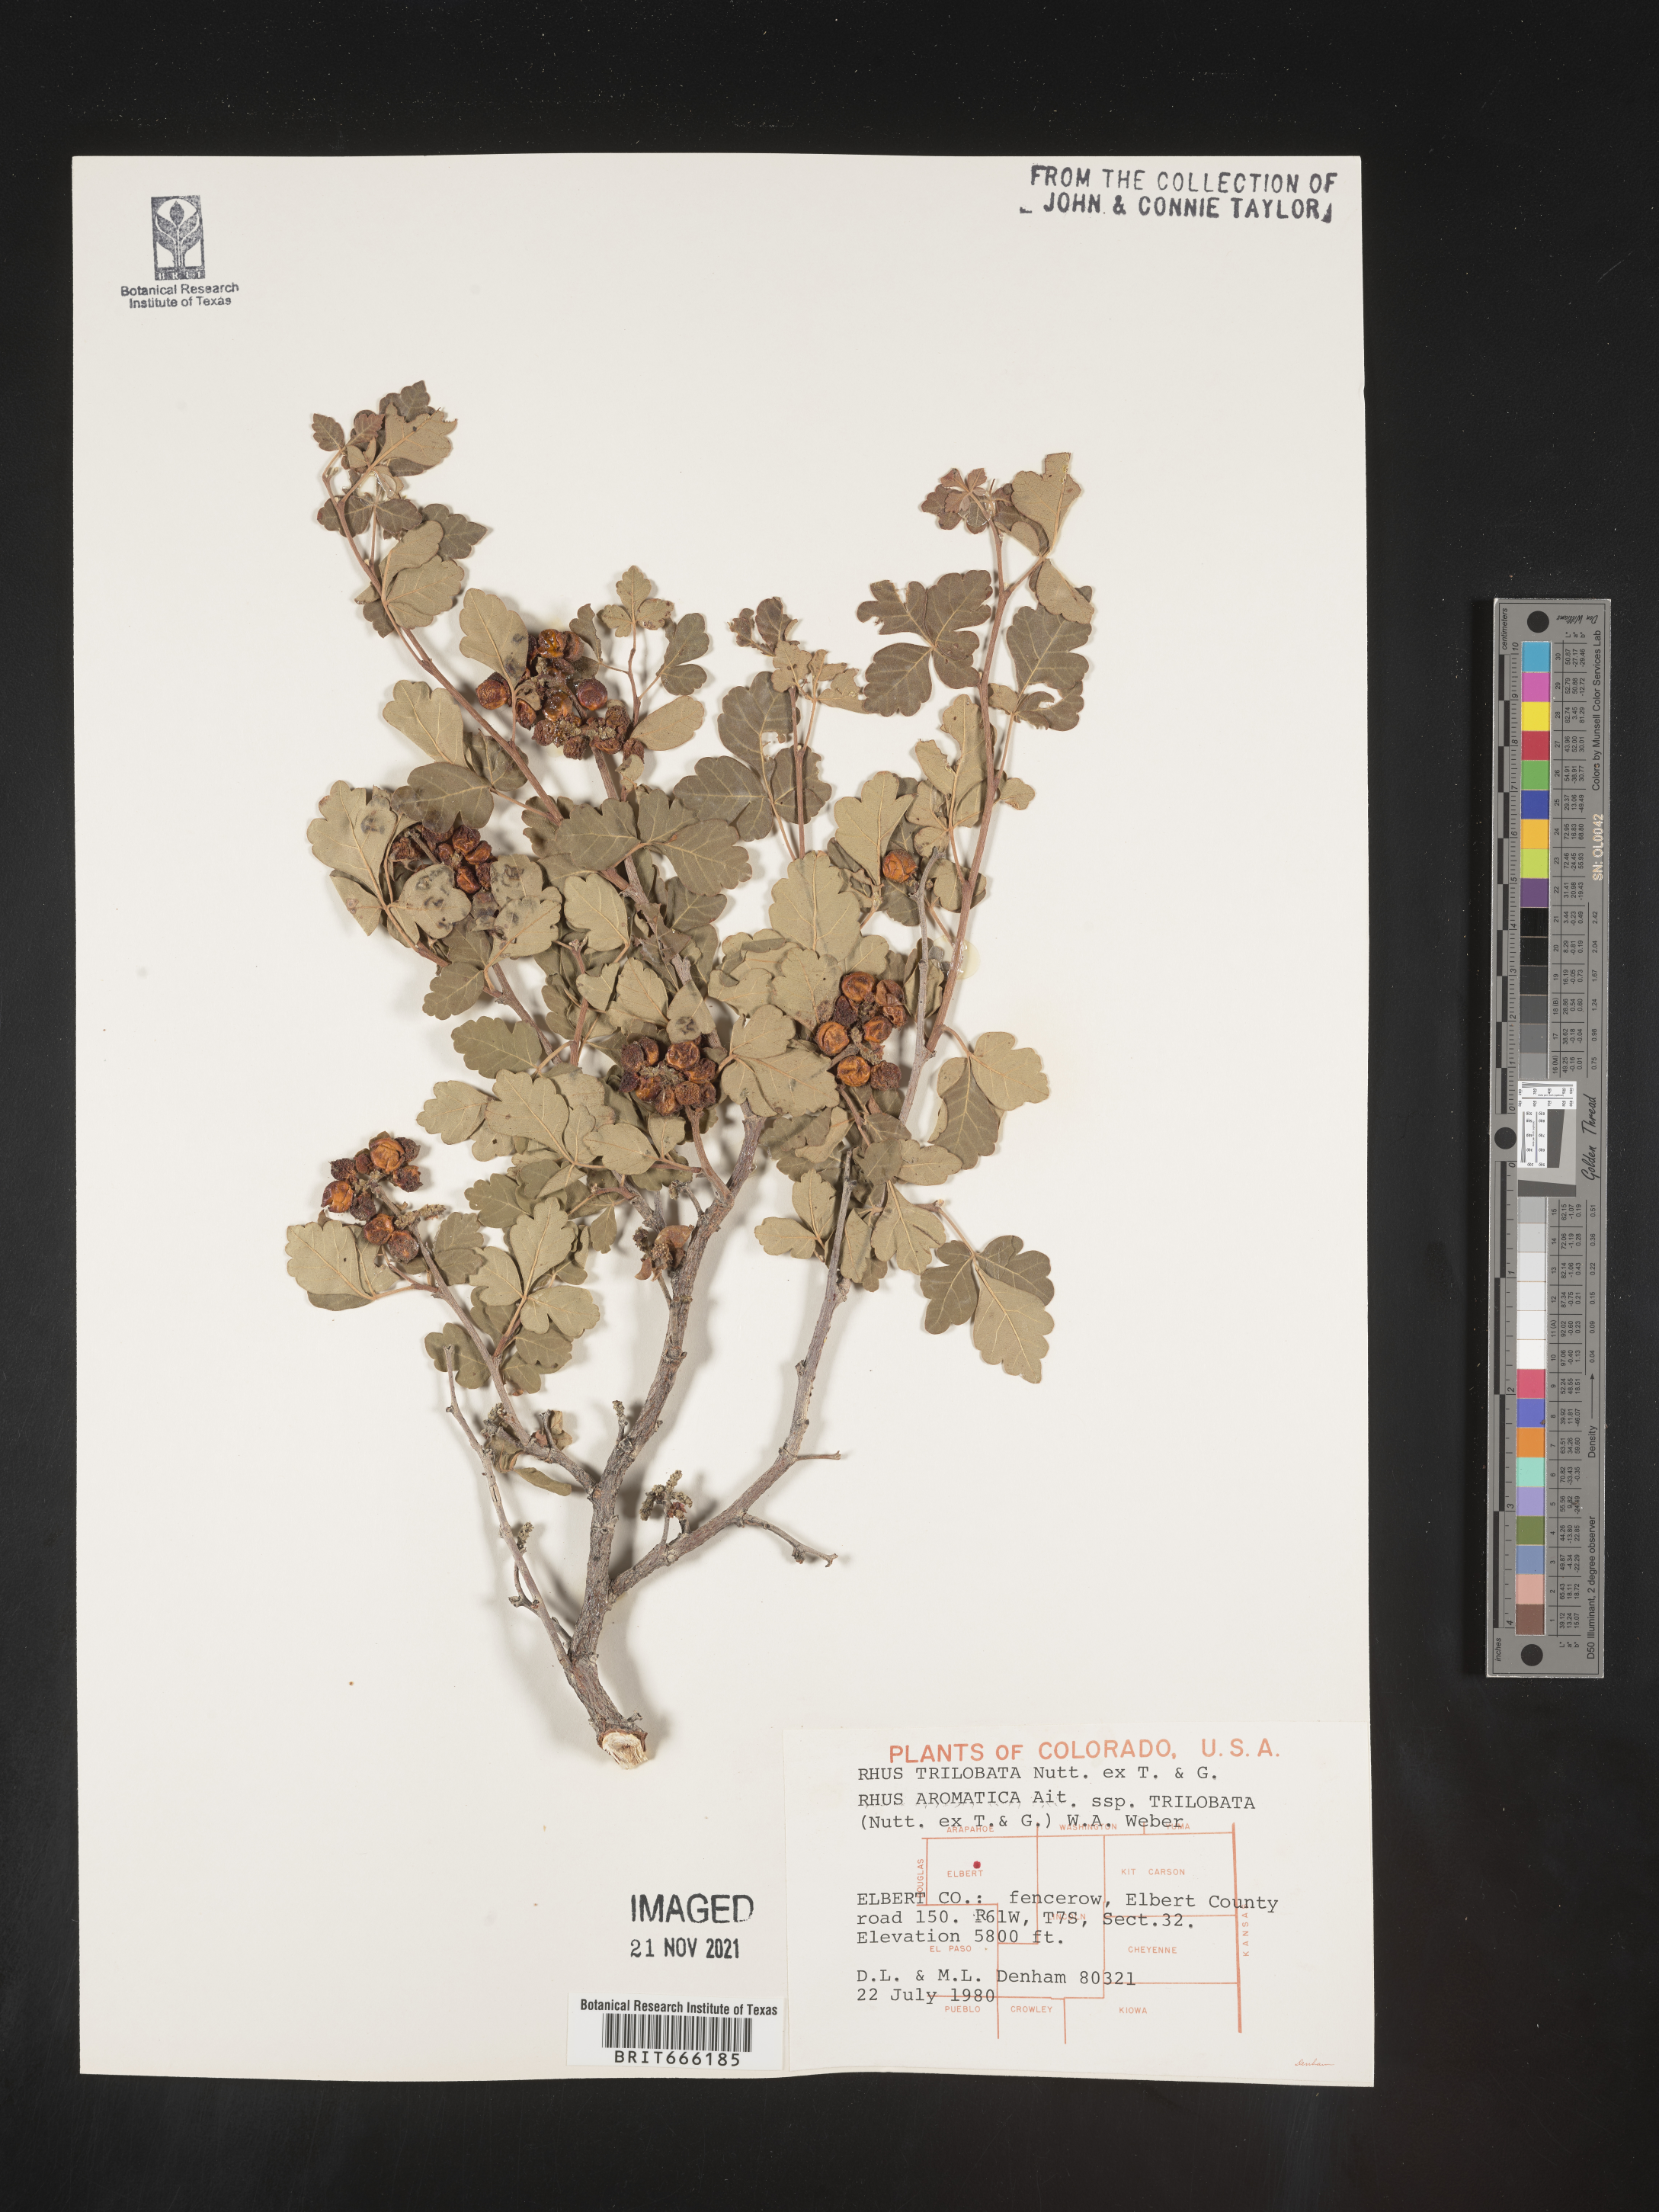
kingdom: Plantae
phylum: Tracheophyta
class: Magnoliopsida
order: Sapindales
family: Anacardiaceae
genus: Rhus
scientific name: Rhus trilobata
